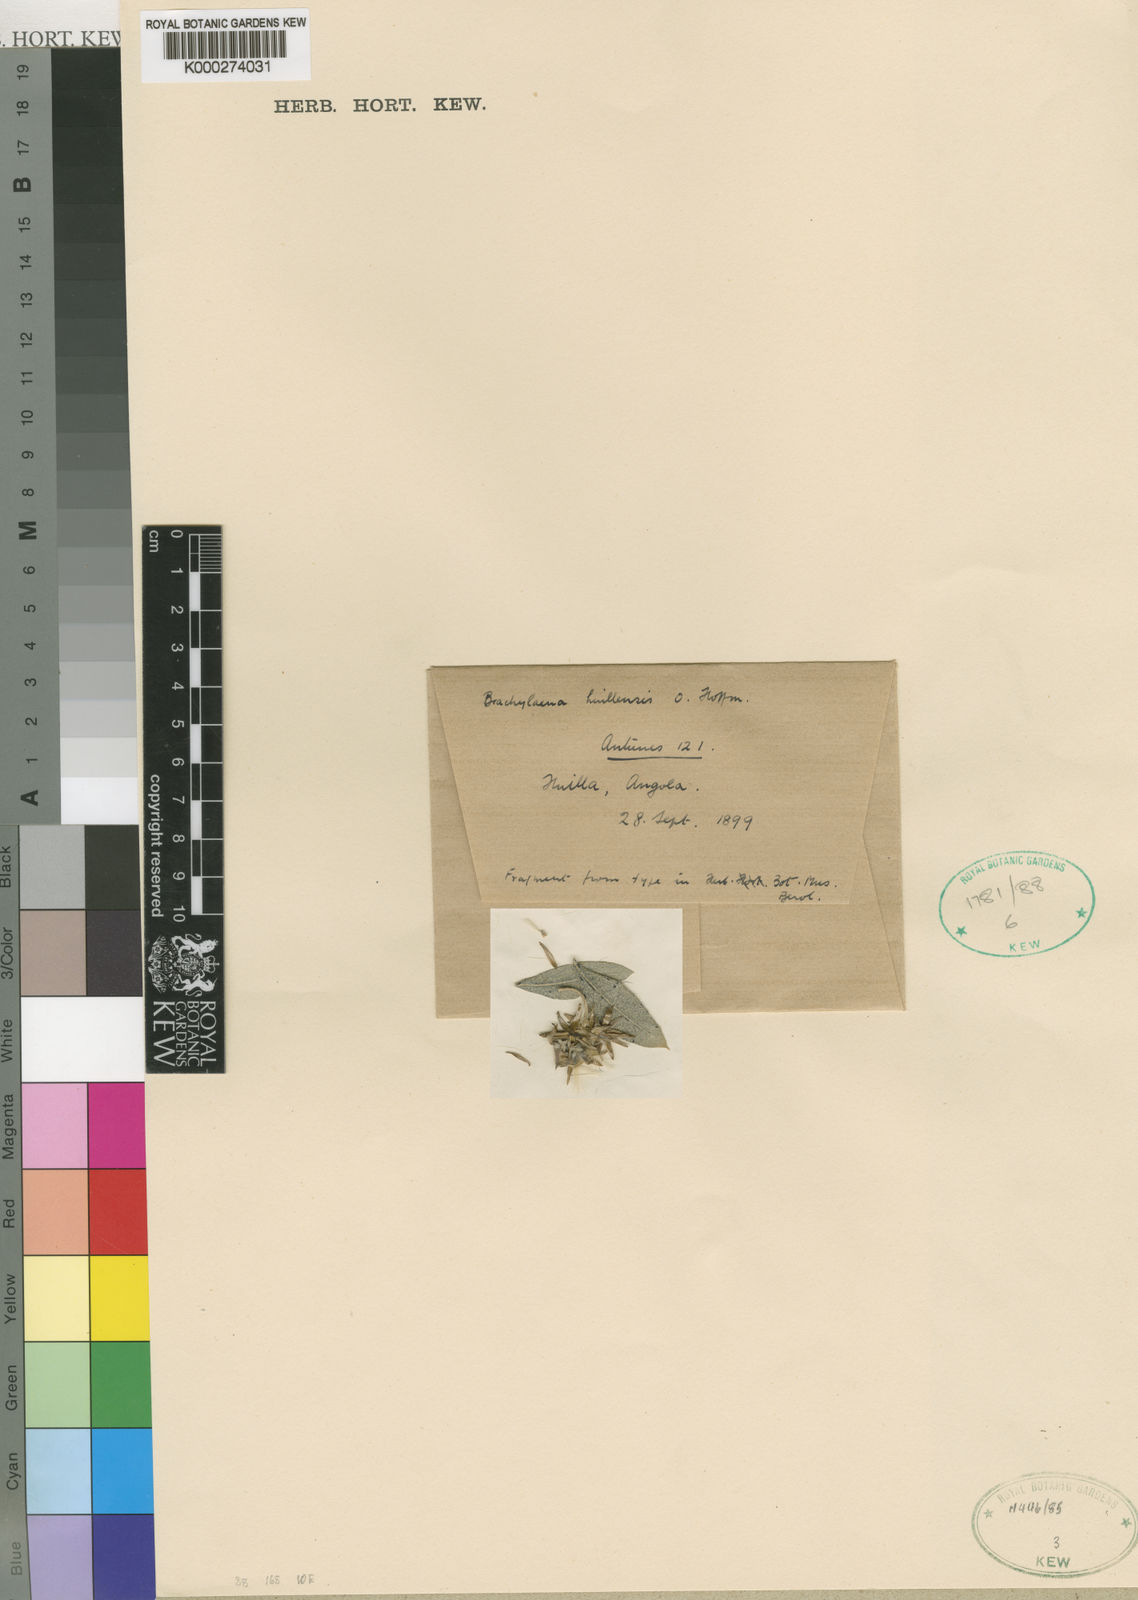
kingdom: Plantae
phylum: Tracheophyta
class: Magnoliopsida
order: Asterales
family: Asteraceae
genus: Brachylaena
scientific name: Brachylaena huillensis
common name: Silver-oak
